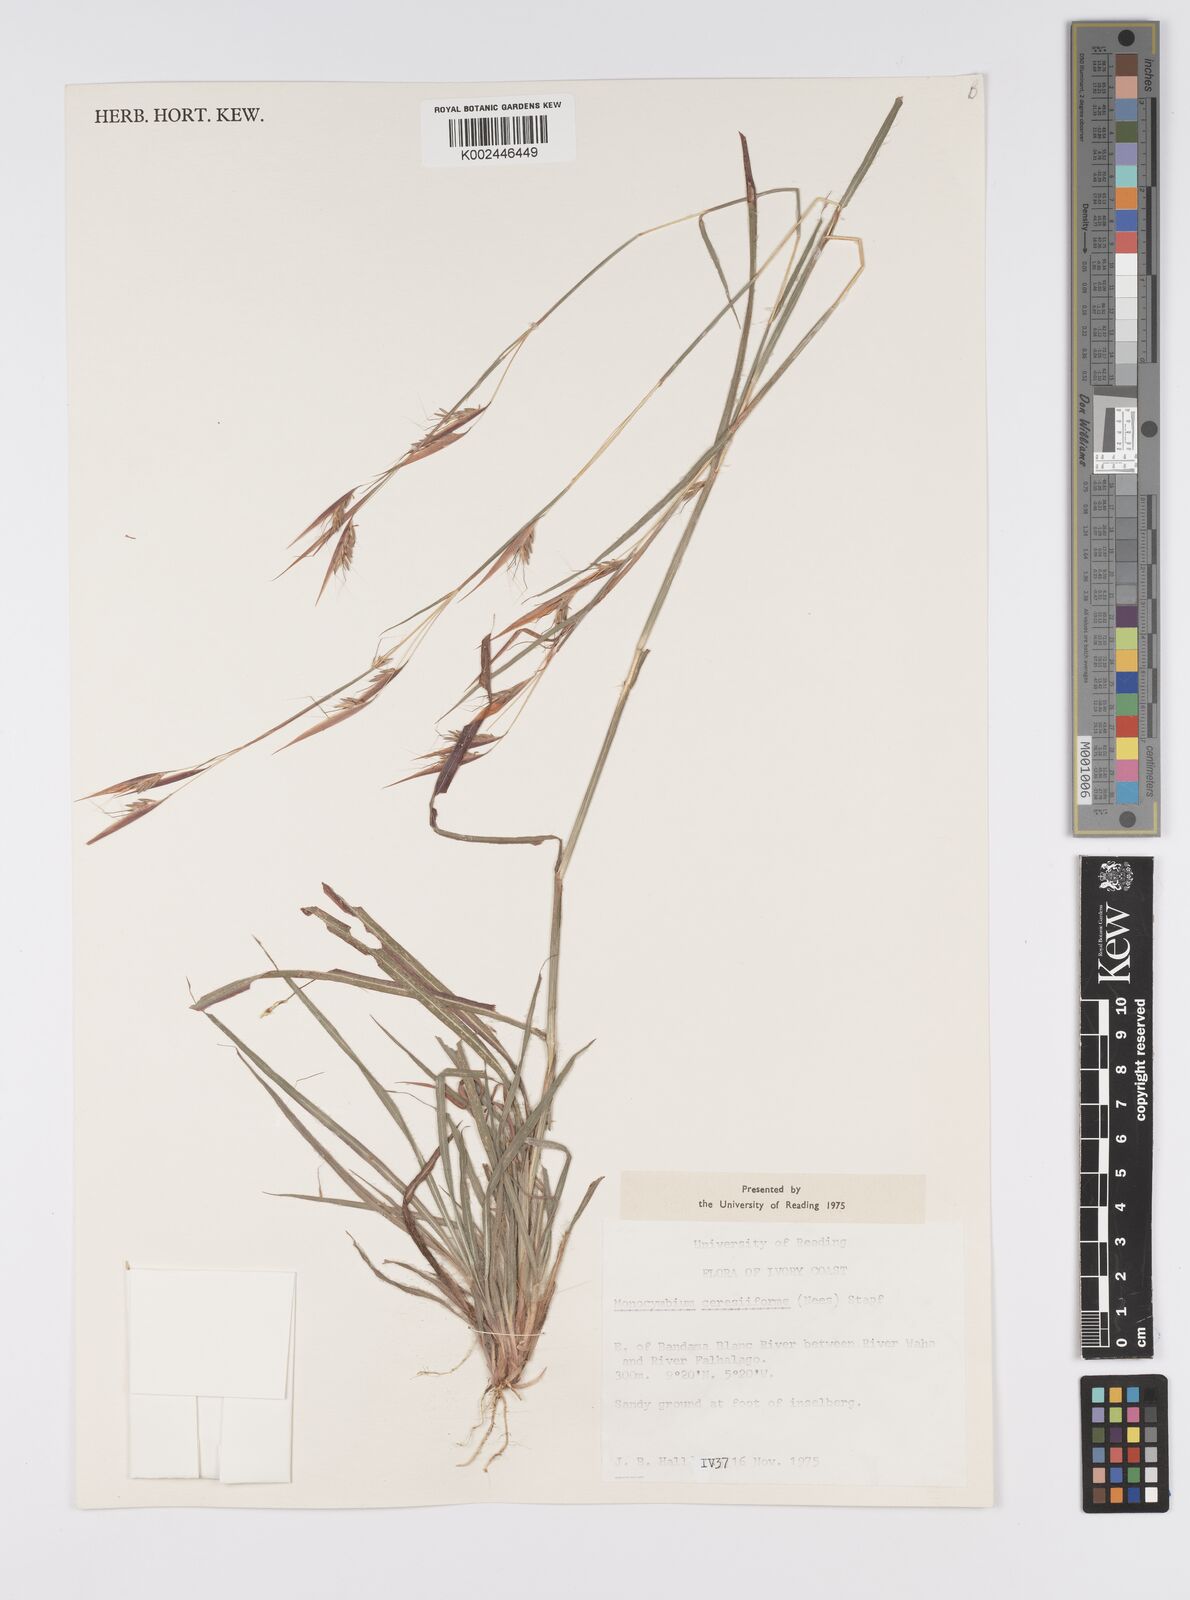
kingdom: Plantae
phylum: Tracheophyta
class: Liliopsida
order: Poales
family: Poaceae
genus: Monocymbium
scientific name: Monocymbium ceresiiforme
